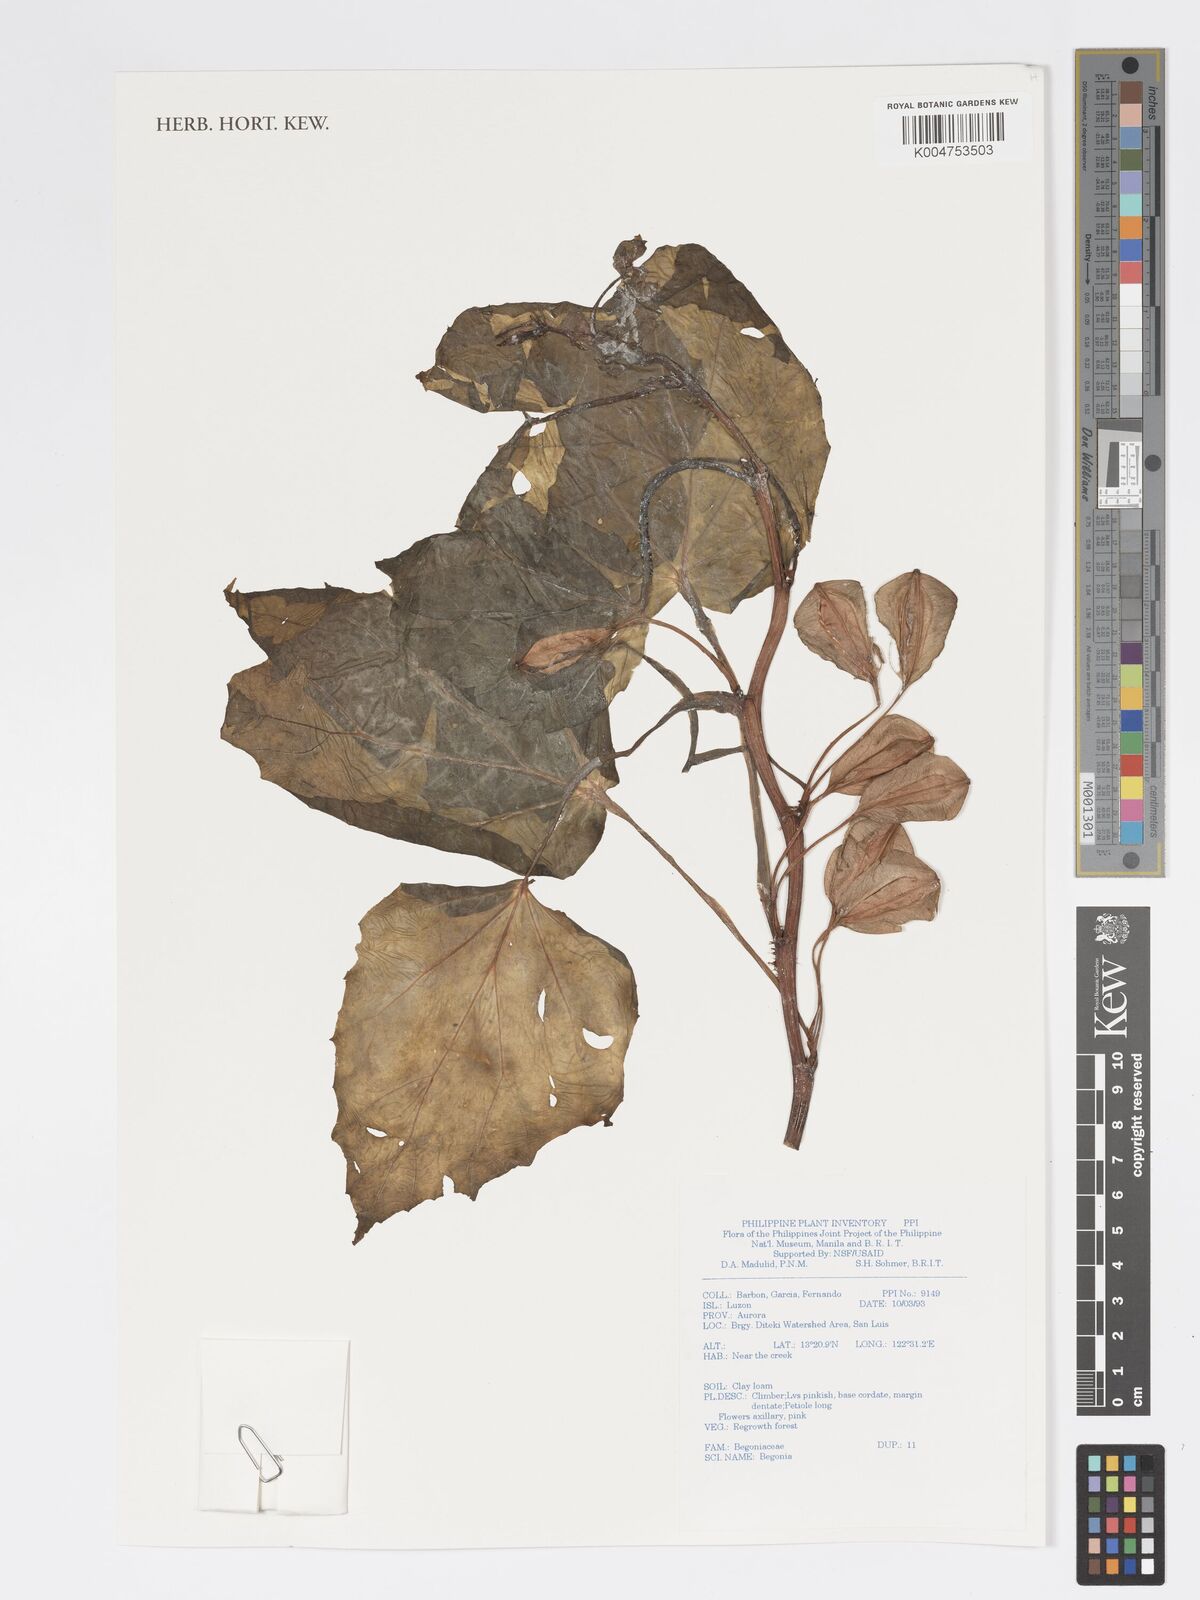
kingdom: Plantae
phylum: Tracheophyta
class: Magnoliopsida
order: Cucurbitales
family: Begoniaceae
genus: Begonia
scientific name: Begonia
